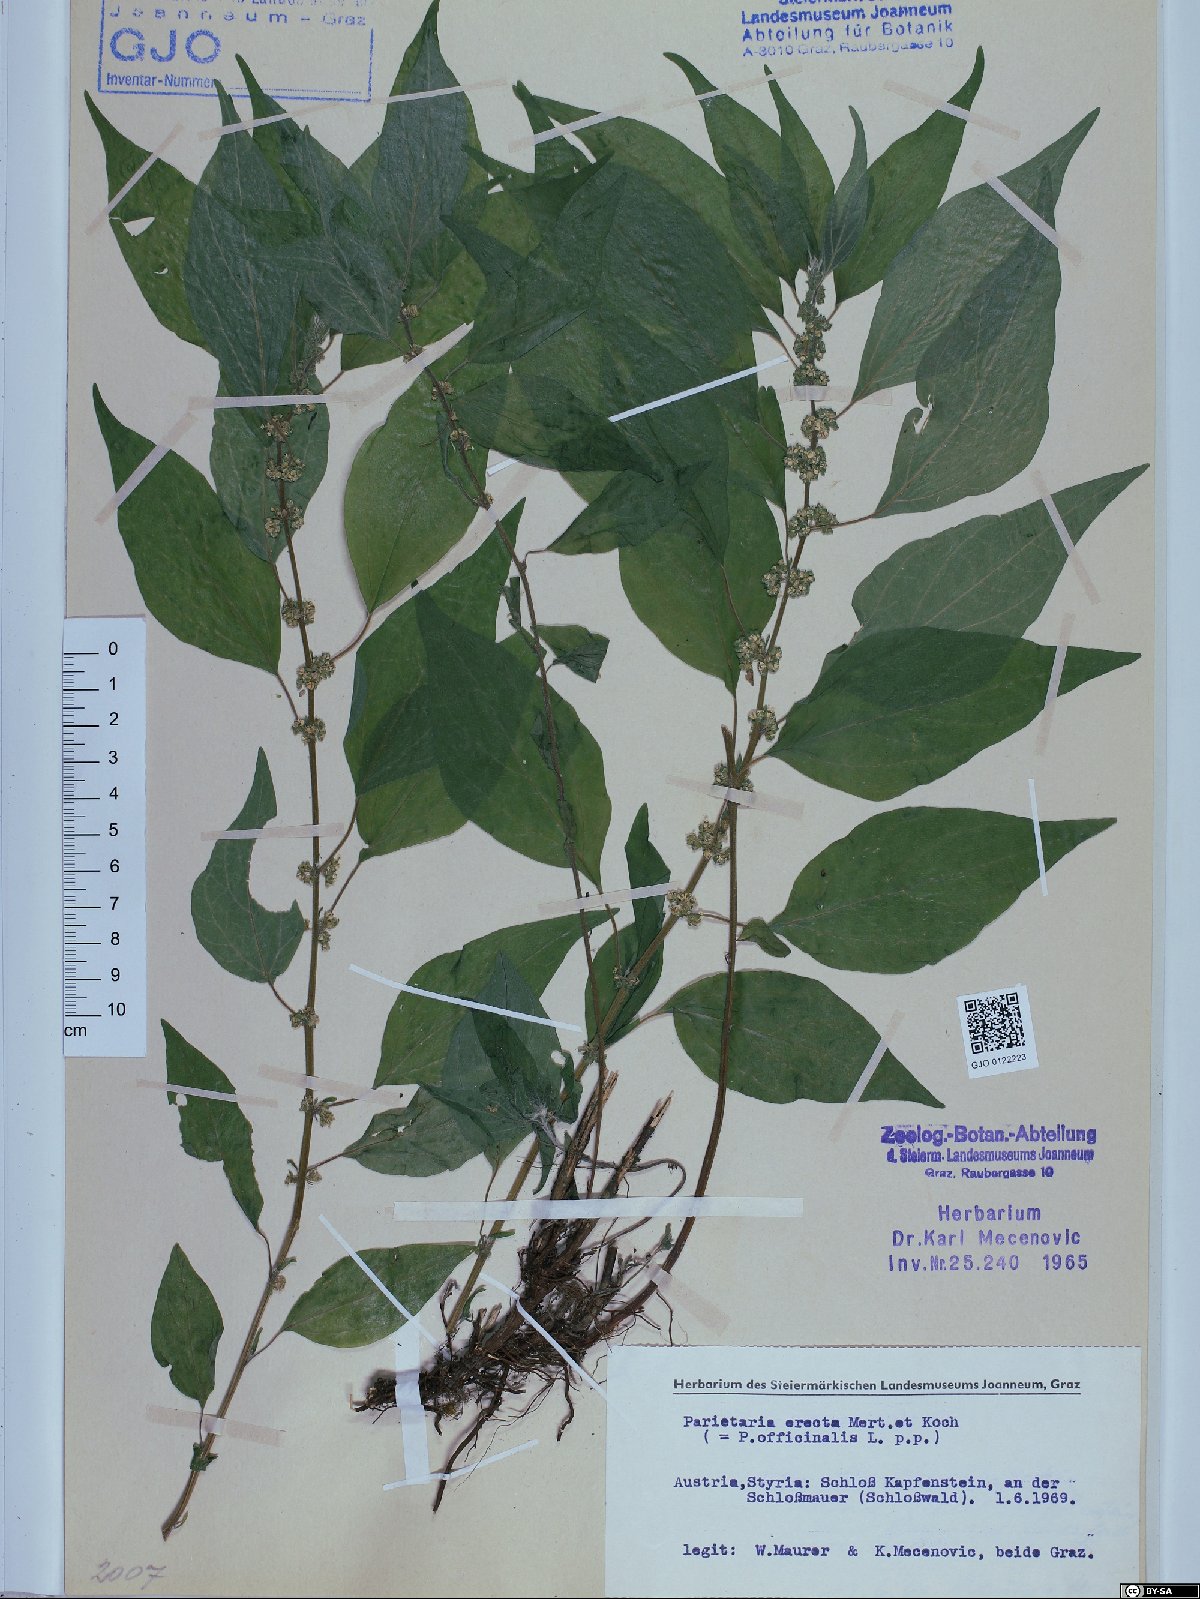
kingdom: Plantae
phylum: Tracheophyta
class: Magnoliopsida
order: Rosales
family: Urticaceae
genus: Parietaria
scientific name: Parietaria officinalis
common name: Eastern pellitory-of-the-wall
